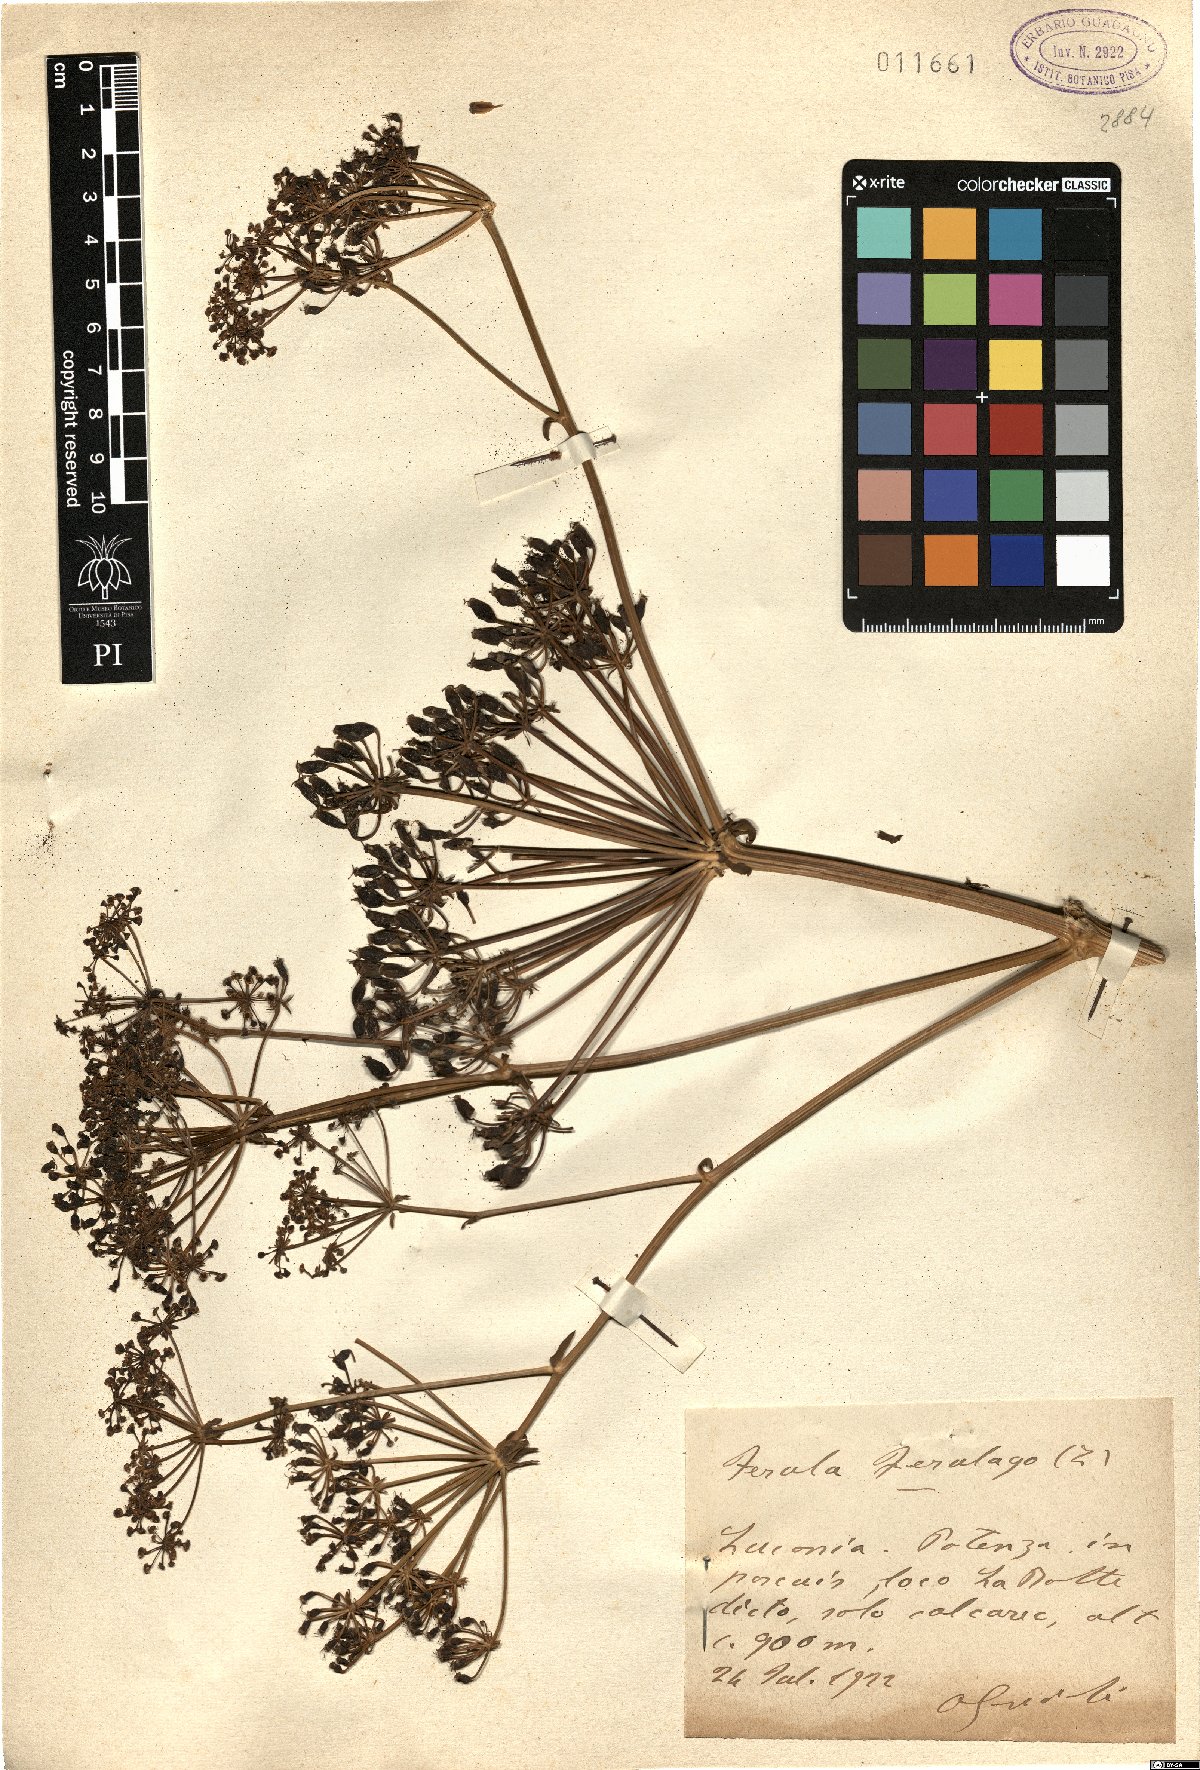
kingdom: Plantae
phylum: Tracheophyta
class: Magnoliopsida
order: Apiales
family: Apiaceae
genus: Ferula
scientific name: Ferula communis
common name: Giant fennel
